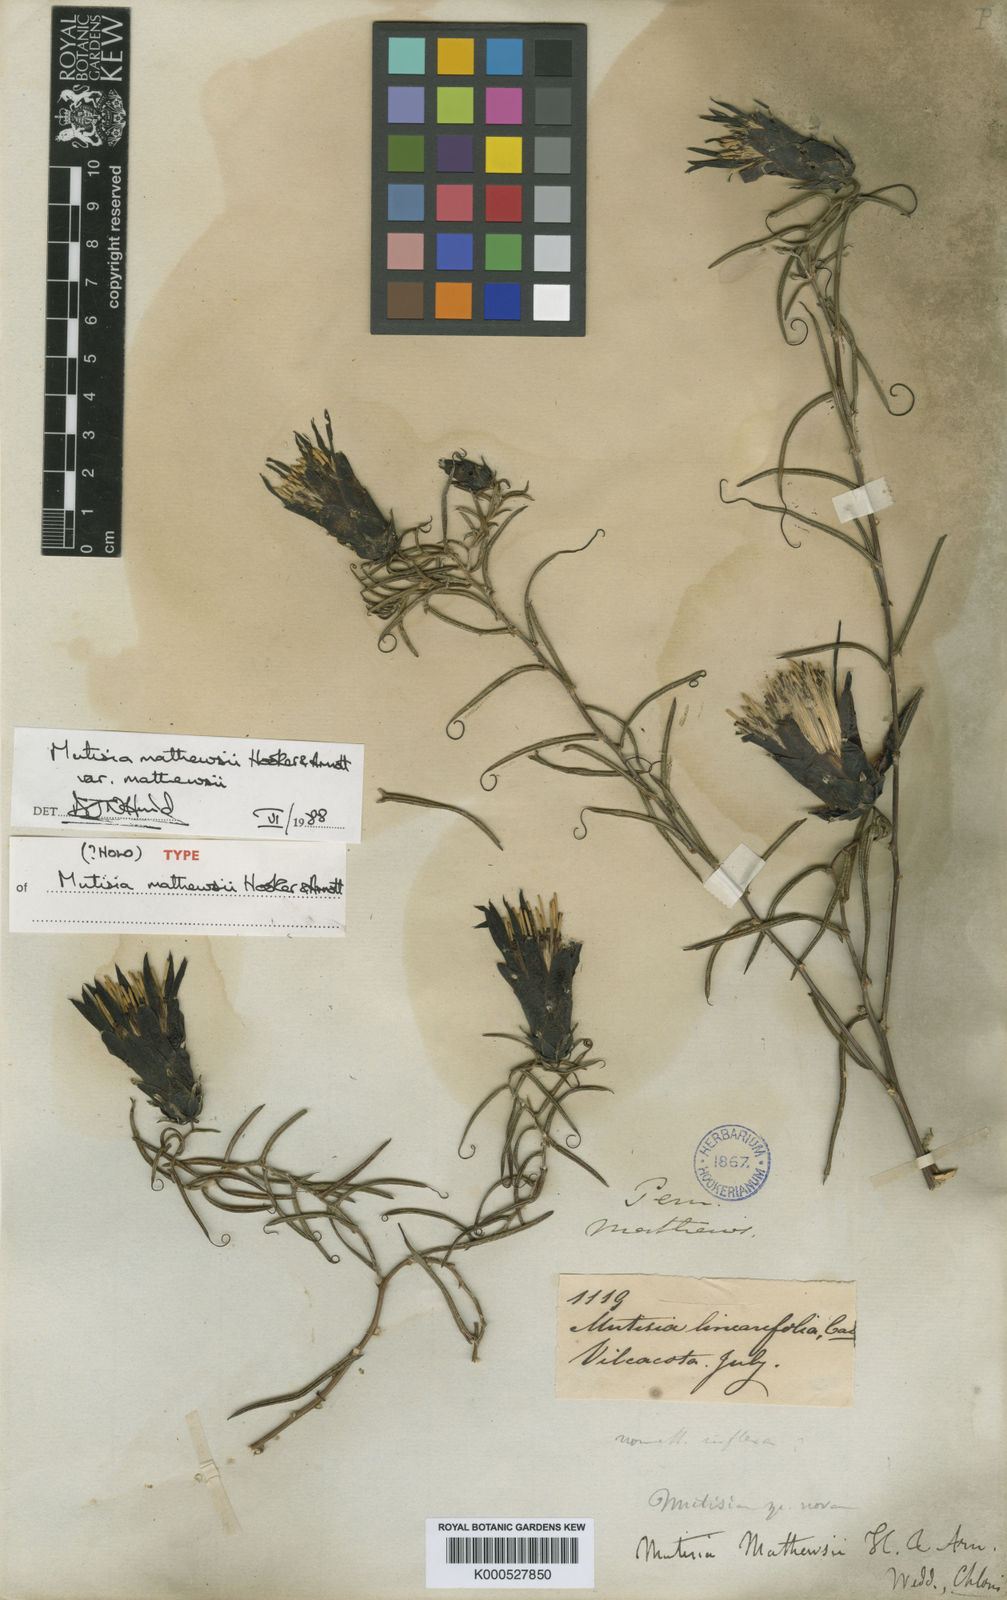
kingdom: Plantae
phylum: Tracheophyta
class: Magnoliopsida
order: Asterales
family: Asteraceae
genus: Mutisia
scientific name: Mutisia mathewsii
